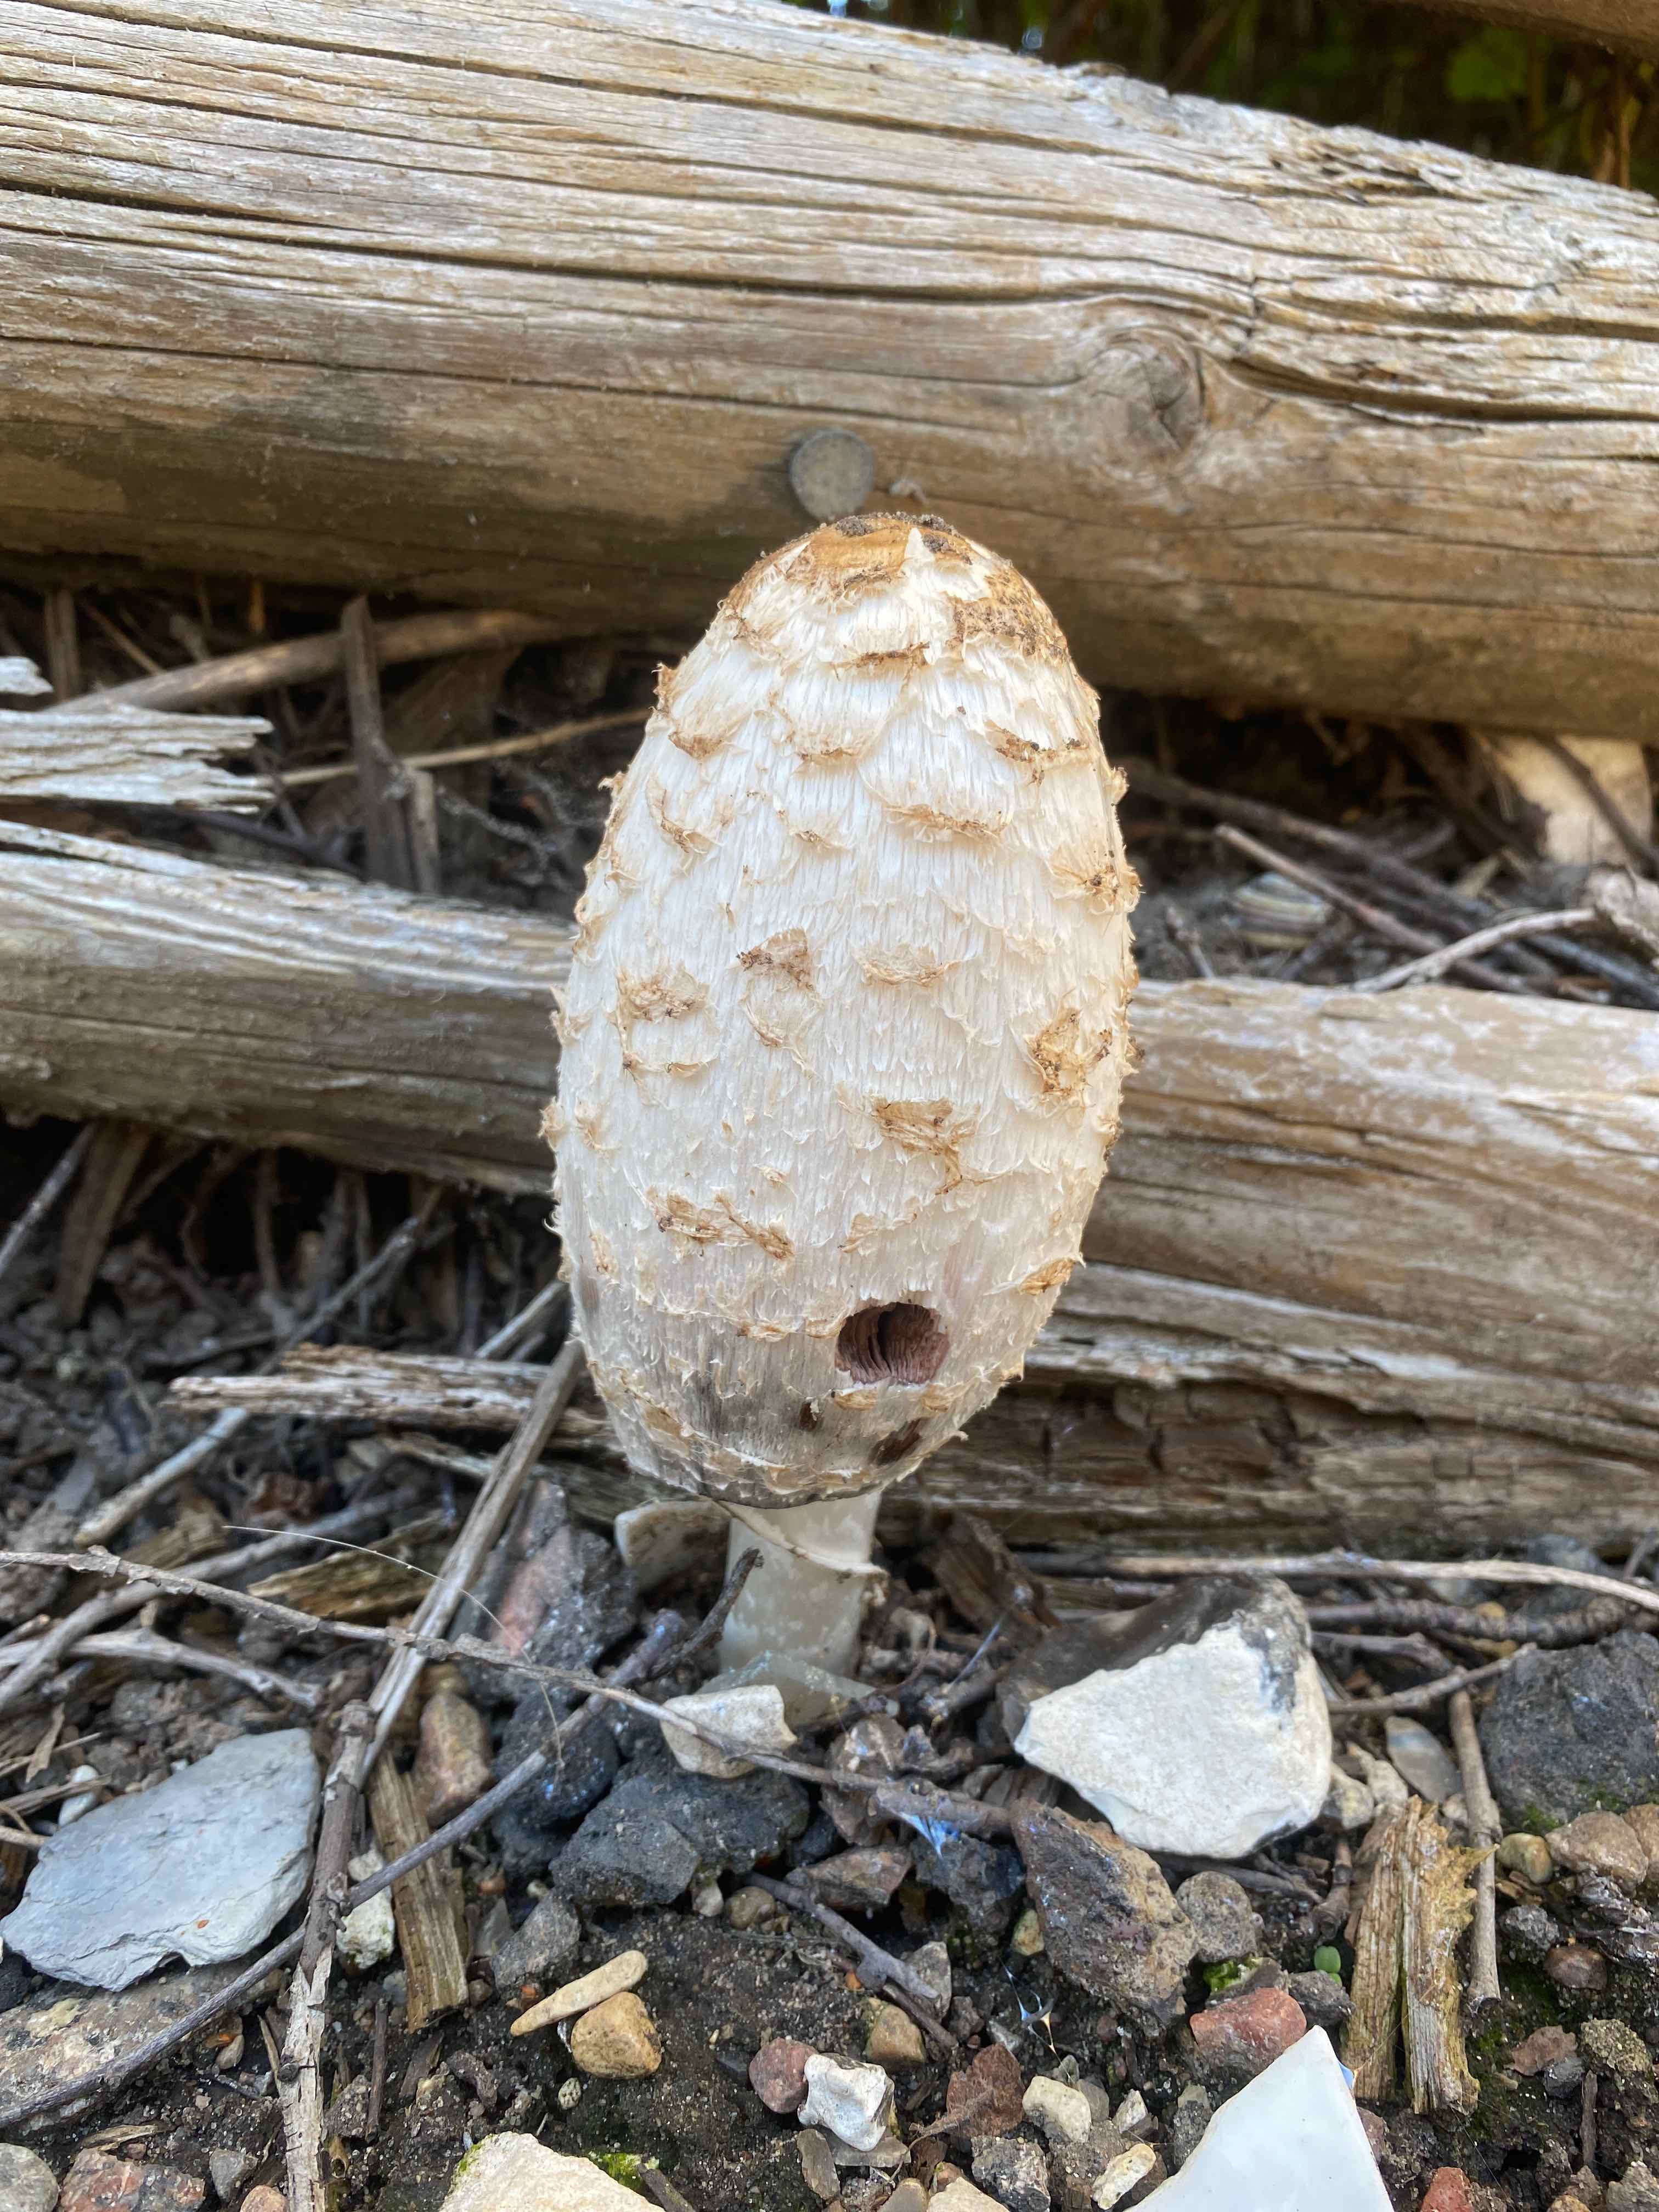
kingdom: Fungi
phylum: Basidiomycota
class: Agaricomycetes
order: Agaricales
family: Agaricaceae
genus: Coprinus
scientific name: Coprinus comatus
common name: stor parykhat
